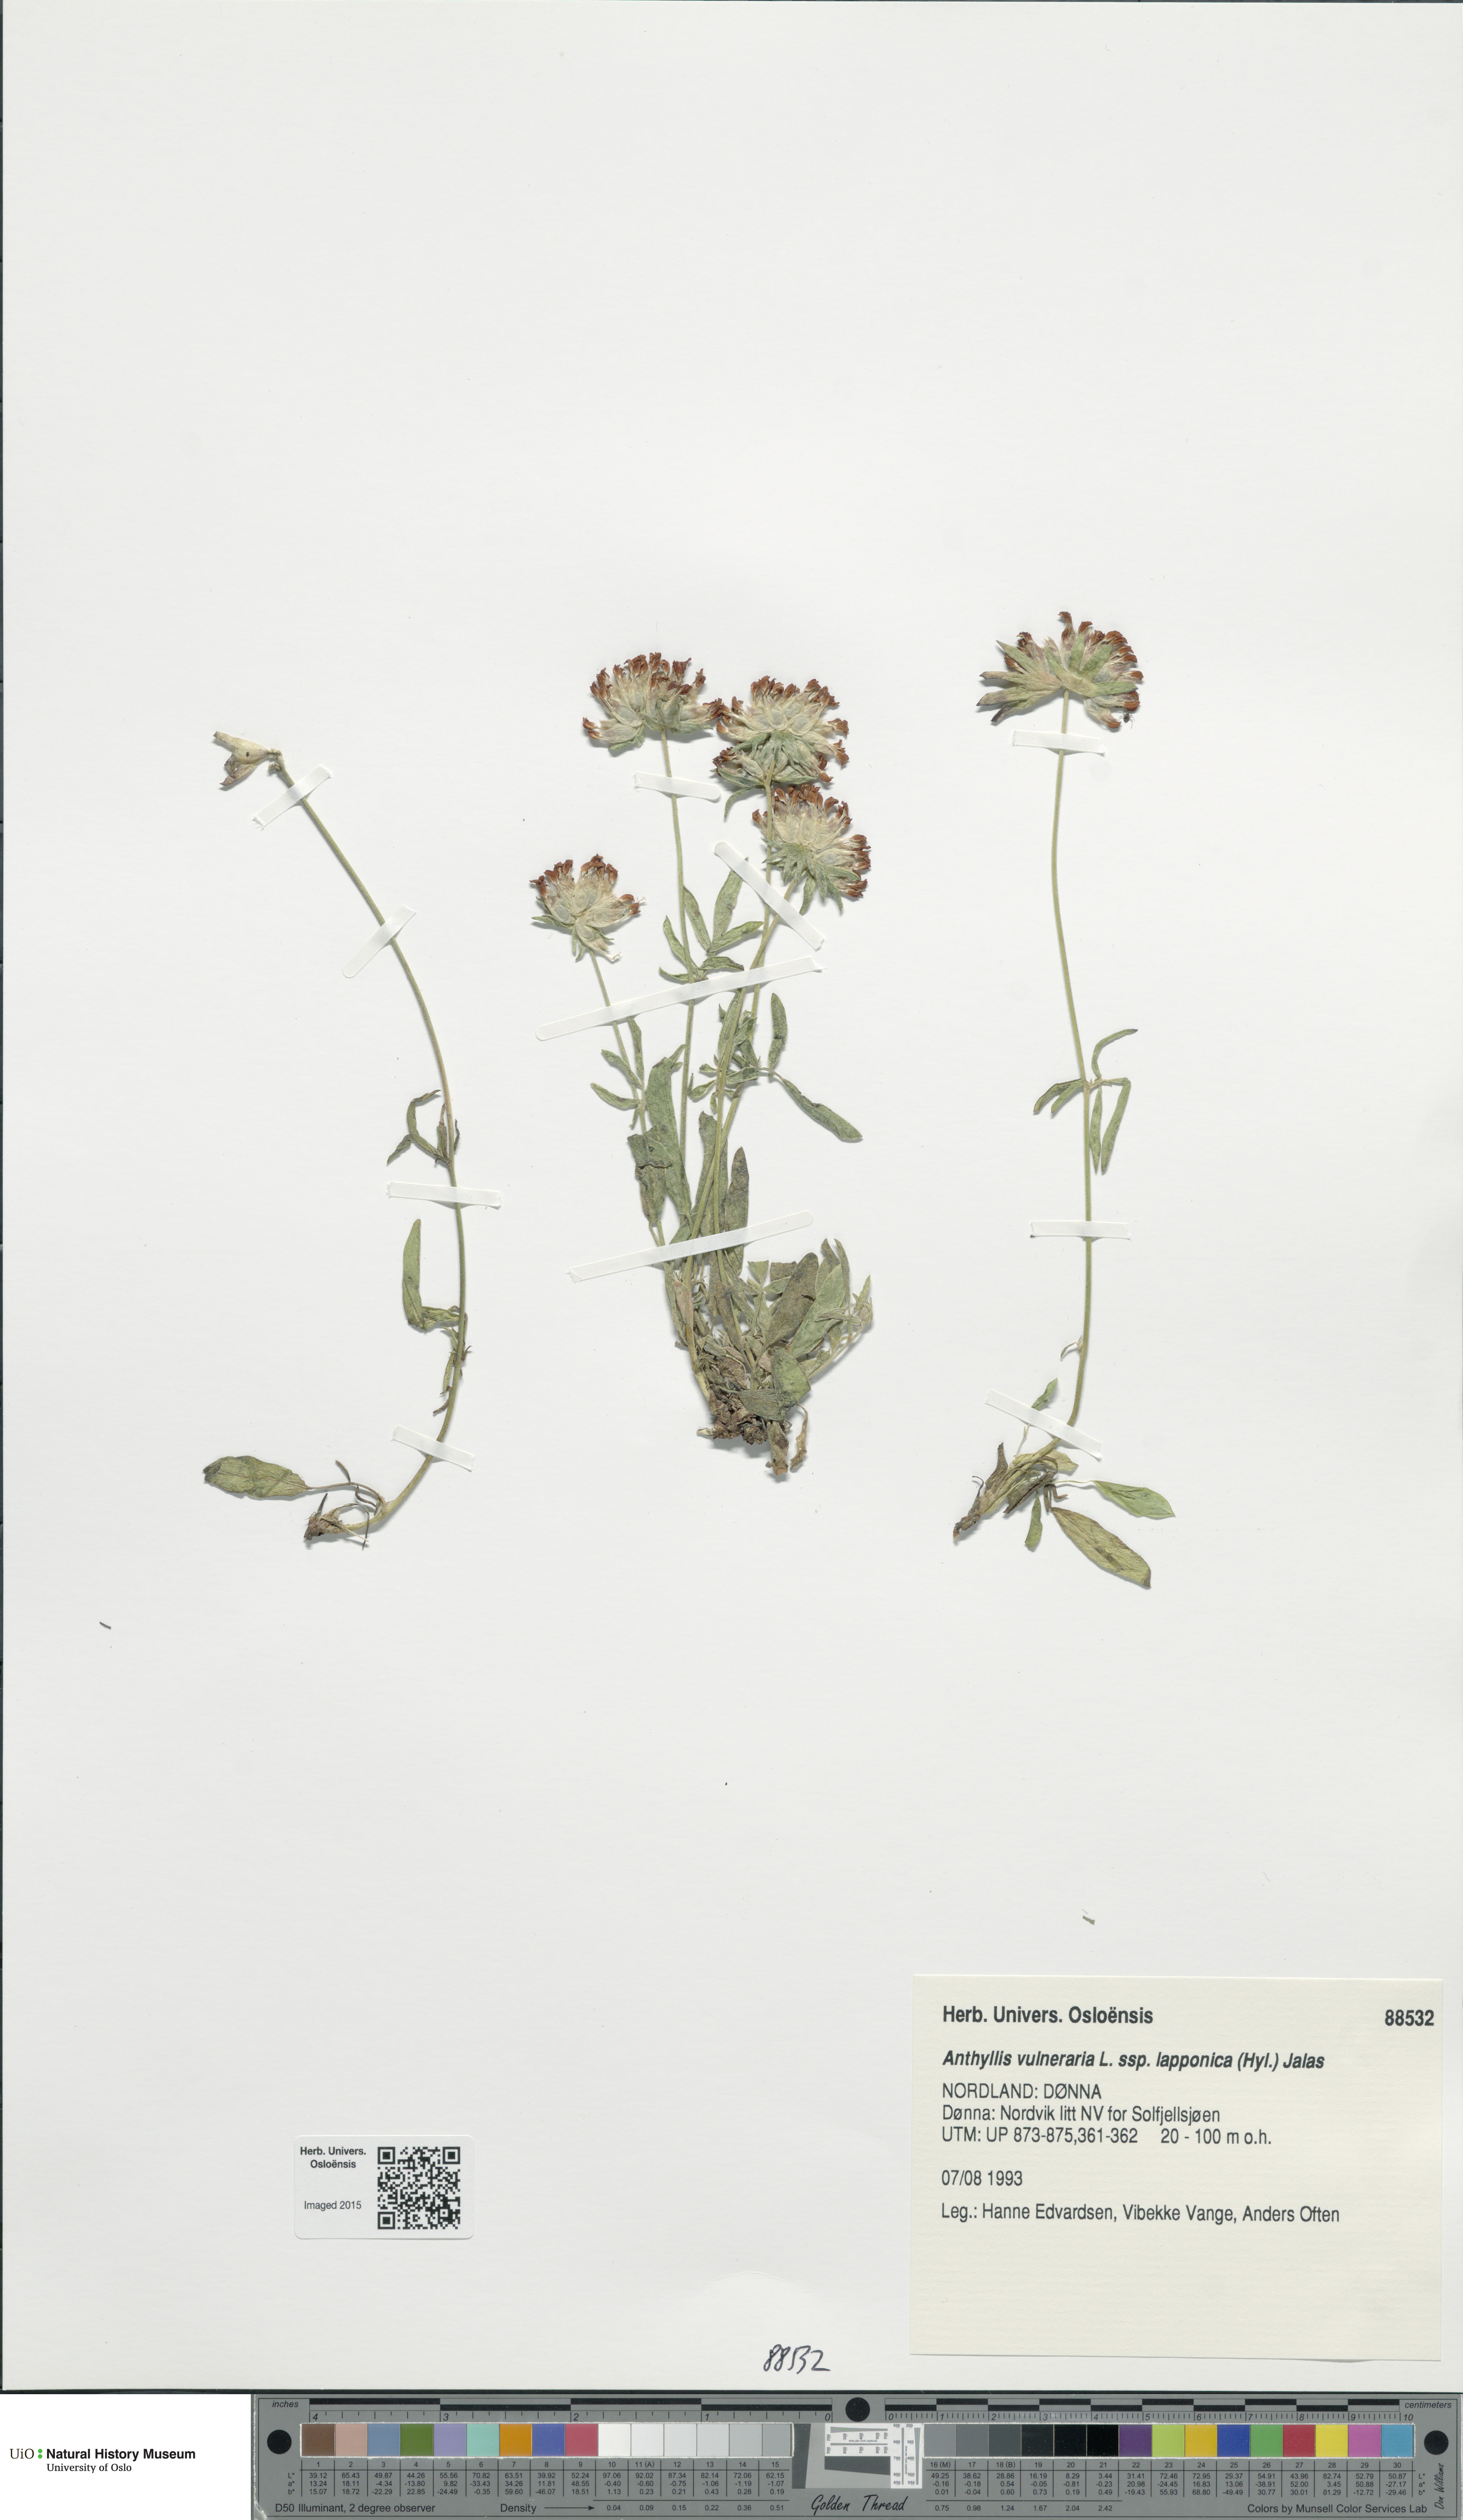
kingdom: Plantae
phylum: Tracheophyta
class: Magnoliopsida
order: Fabales
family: Fabaceae
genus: Anthyllis
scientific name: Anthyllis vulneraria
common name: Kidney vetch
